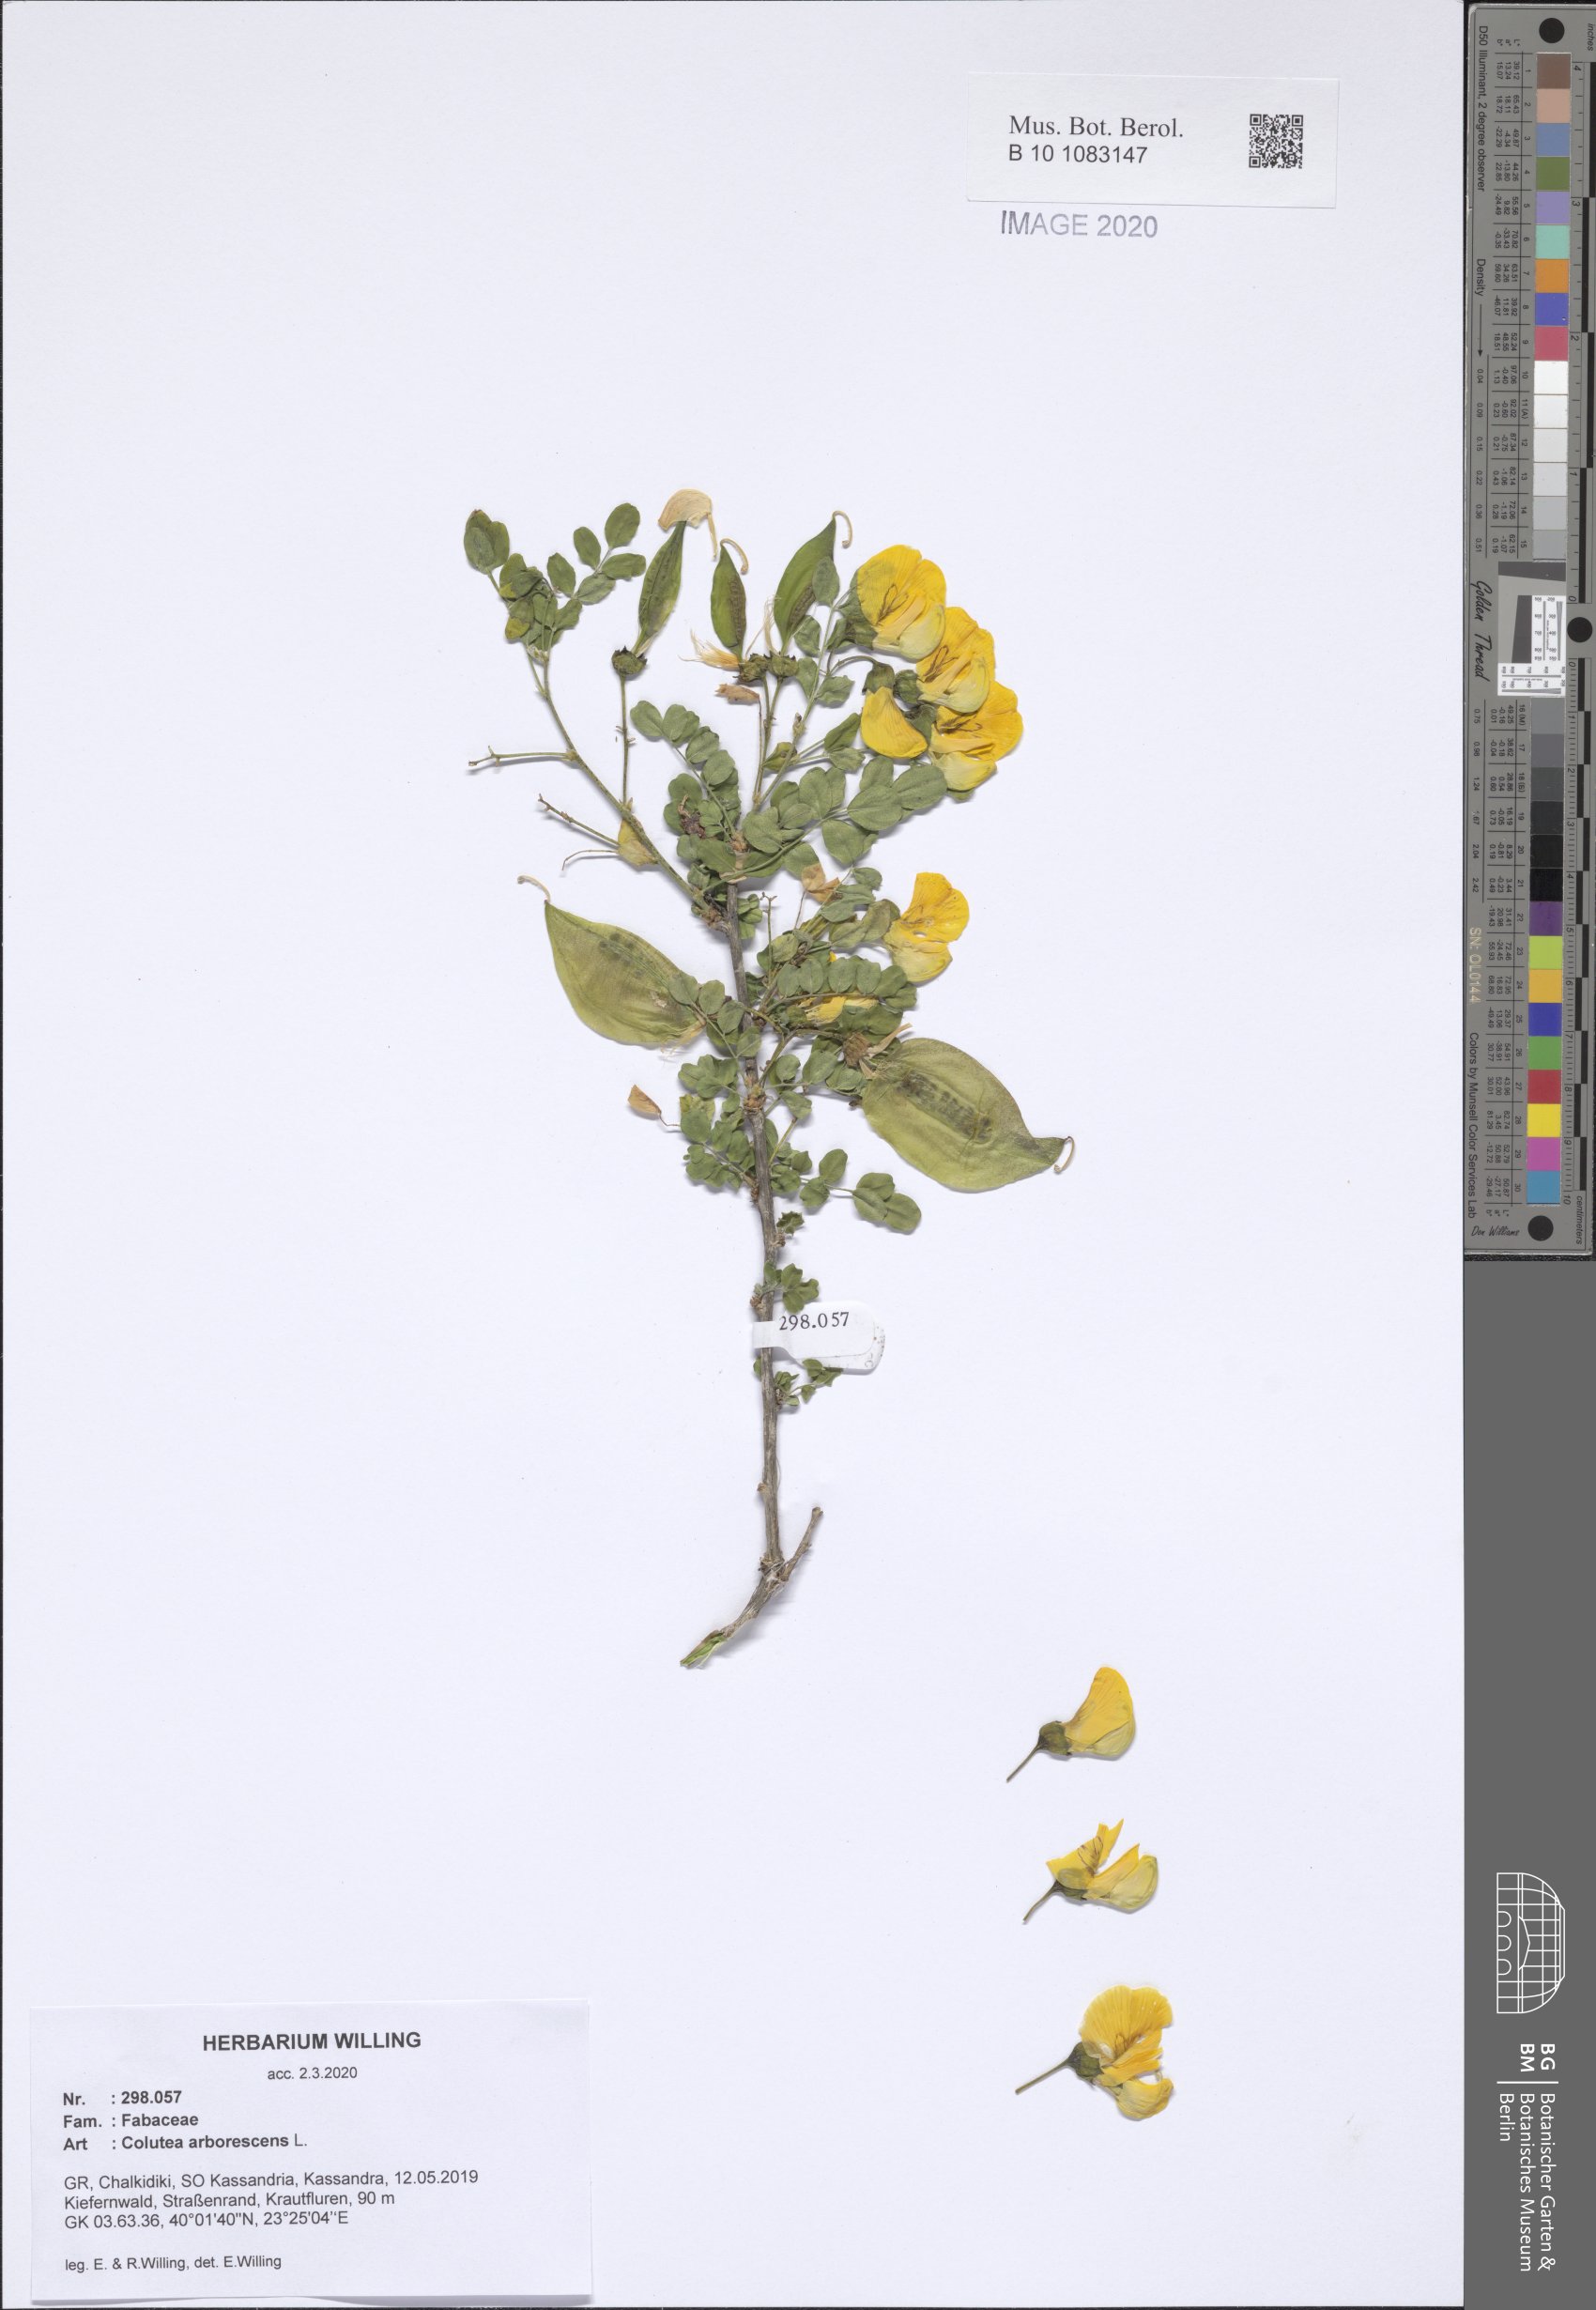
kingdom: Plantae
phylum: Tracheophyta
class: Magnoliopsida
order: Fabales
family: Fabaceae
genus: Colutea
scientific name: Colutea arborescens
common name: Bladder-senna
